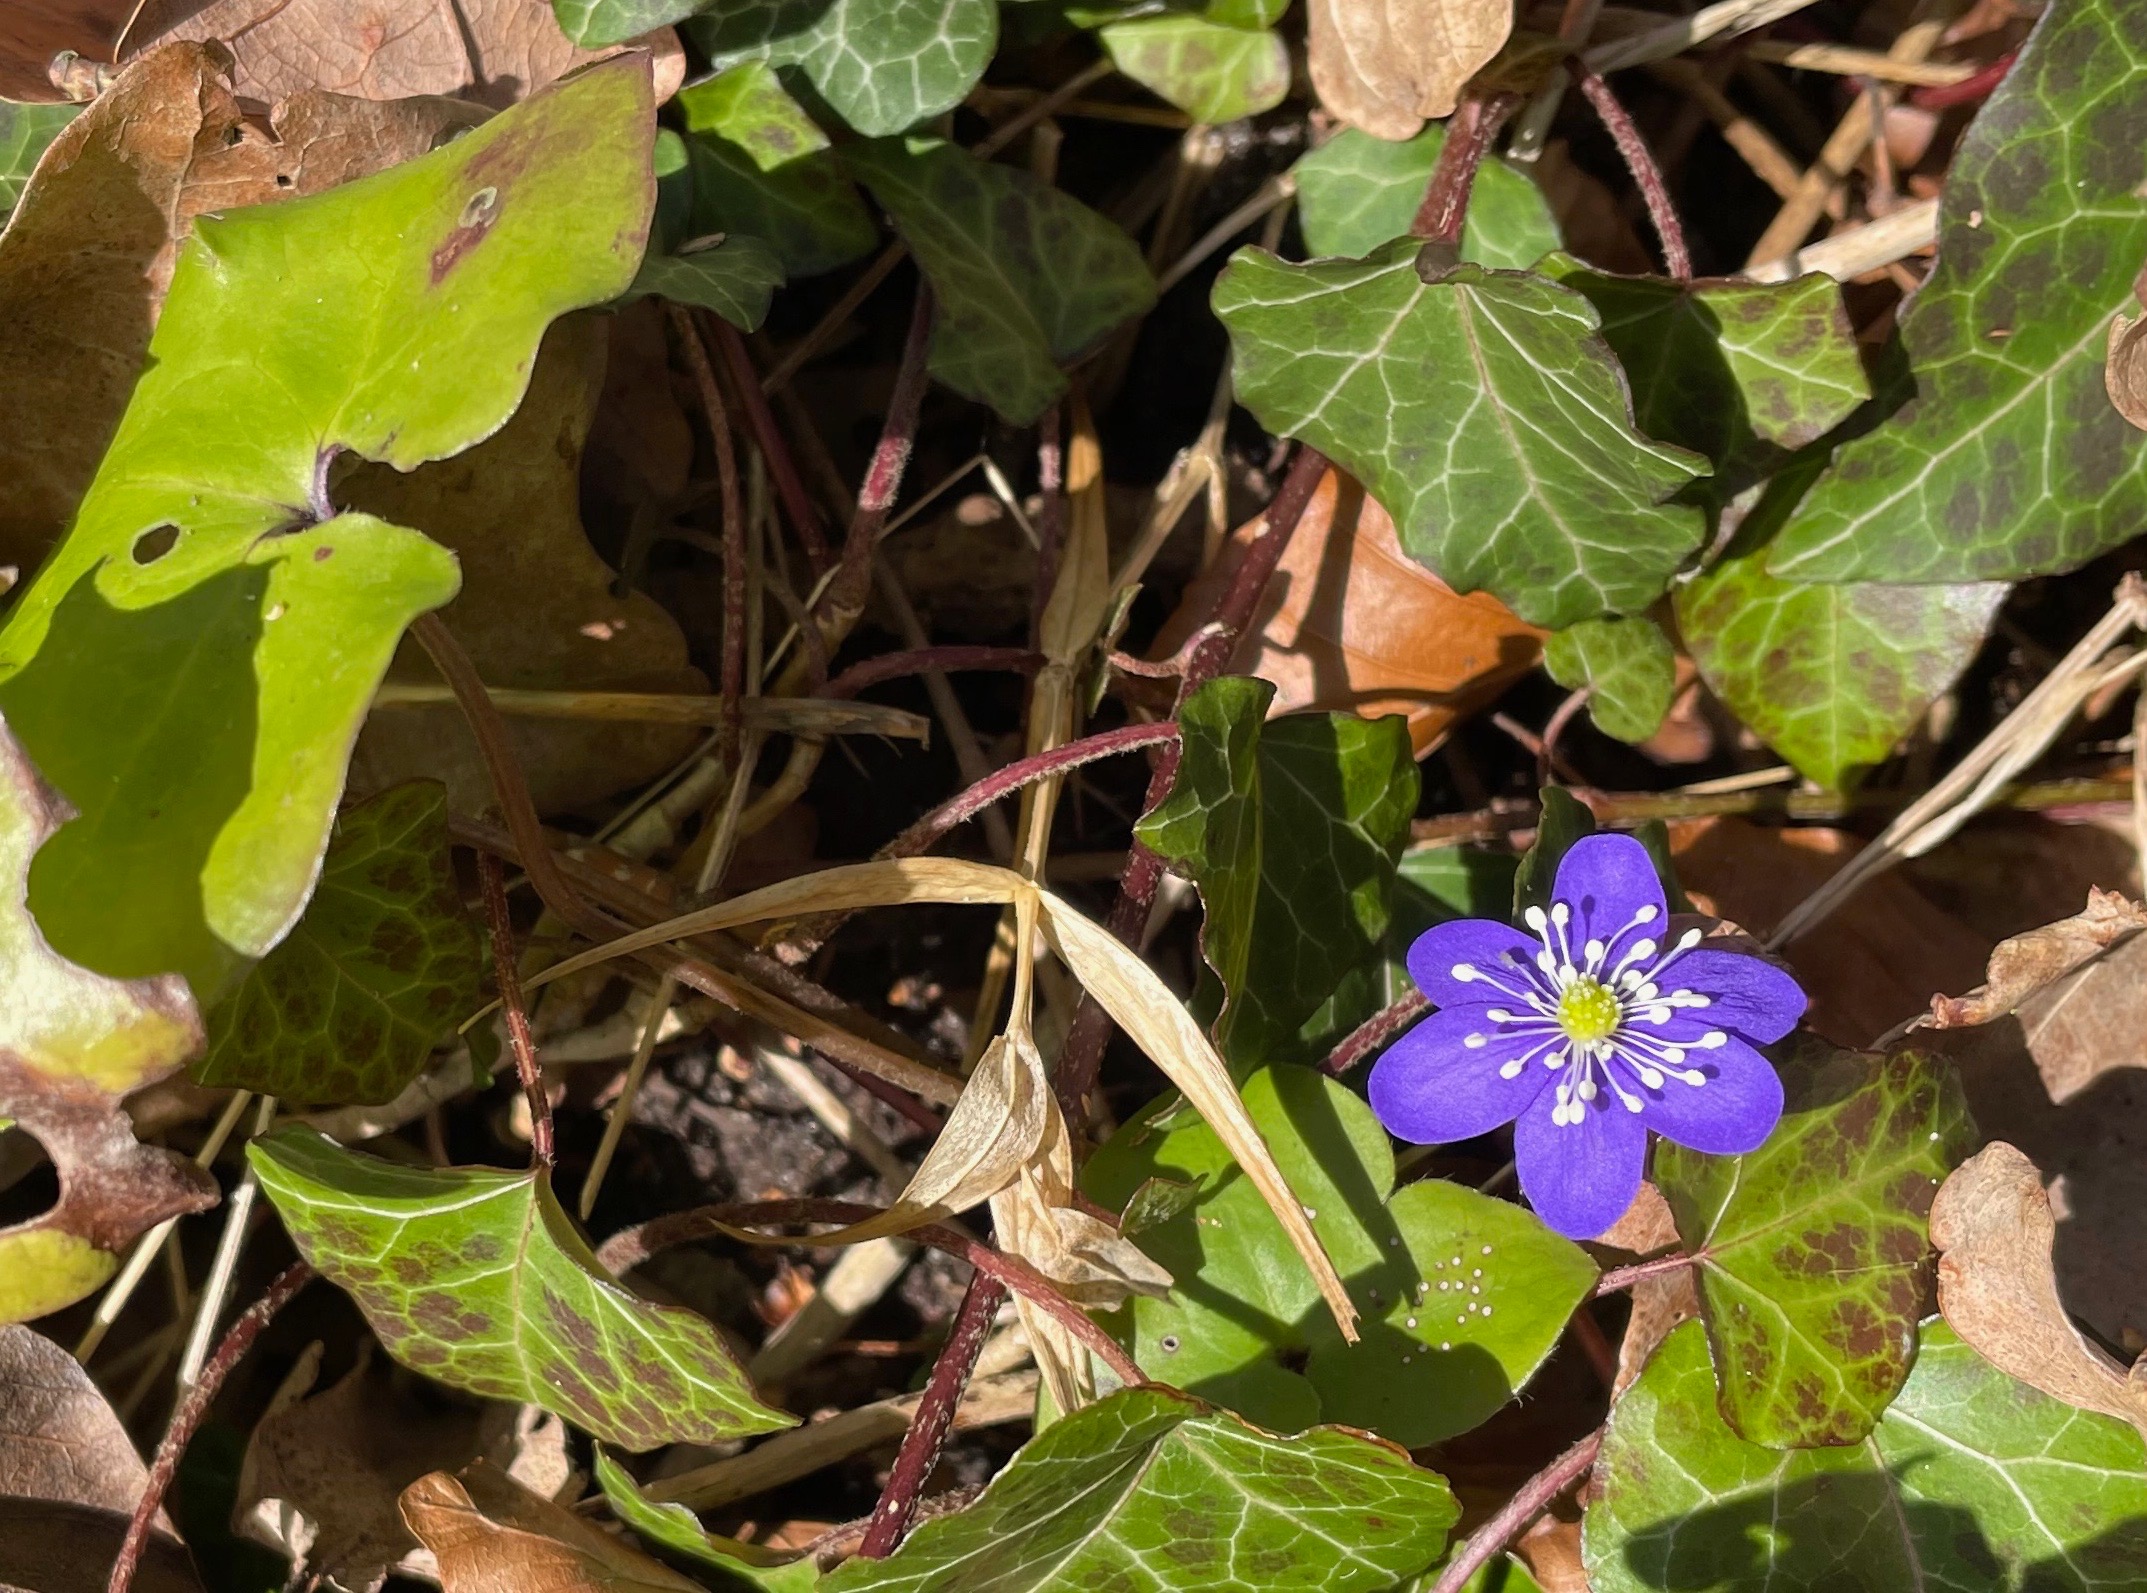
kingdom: Plantae
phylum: Tracheophyta
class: Magnoliopsida
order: Ranunculales
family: Ranunculaceae
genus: Hepatica
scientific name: Hepatica nobilis
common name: Blå anemone
